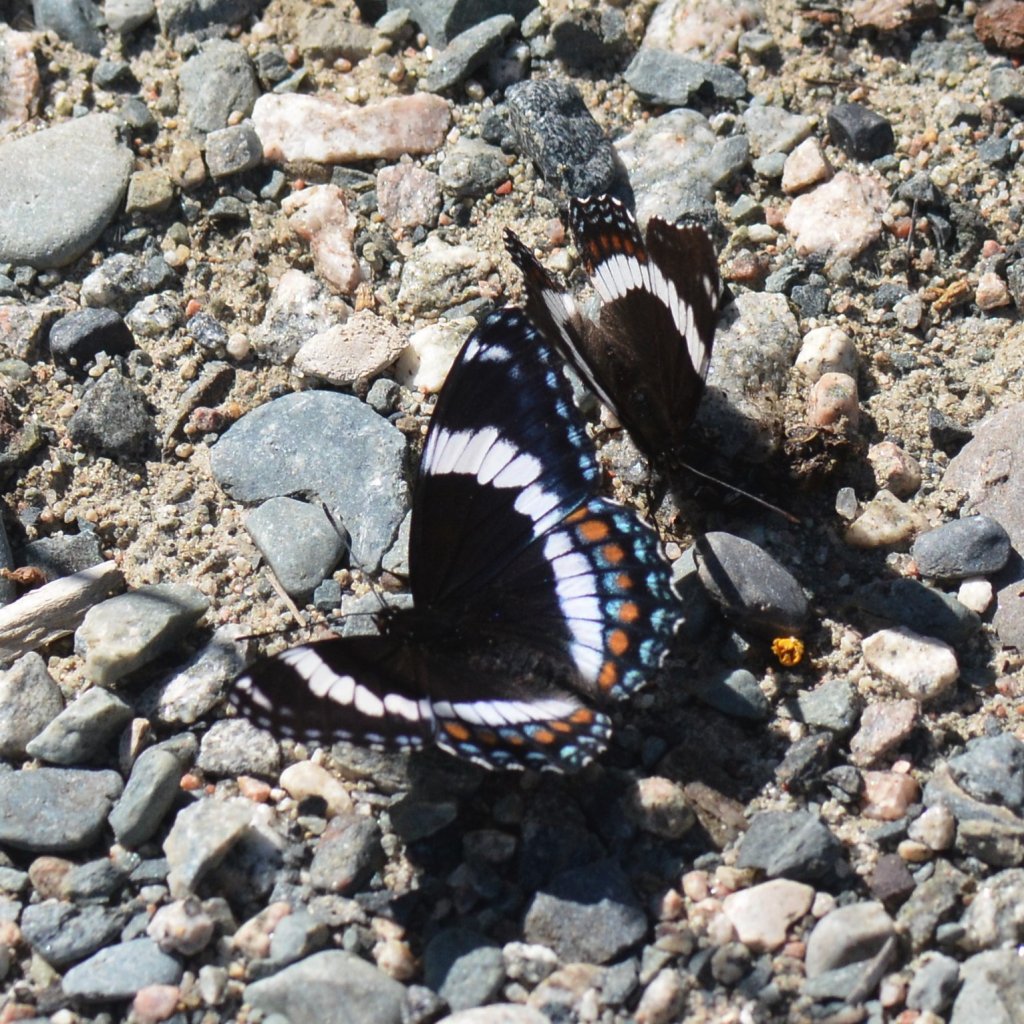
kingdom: Animalia
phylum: Arthropoda
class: Insecta
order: Lepidoptera
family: Nymphalidae
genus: Limenitis
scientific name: Limenitis arthemis
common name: Red-spotted Admiral
